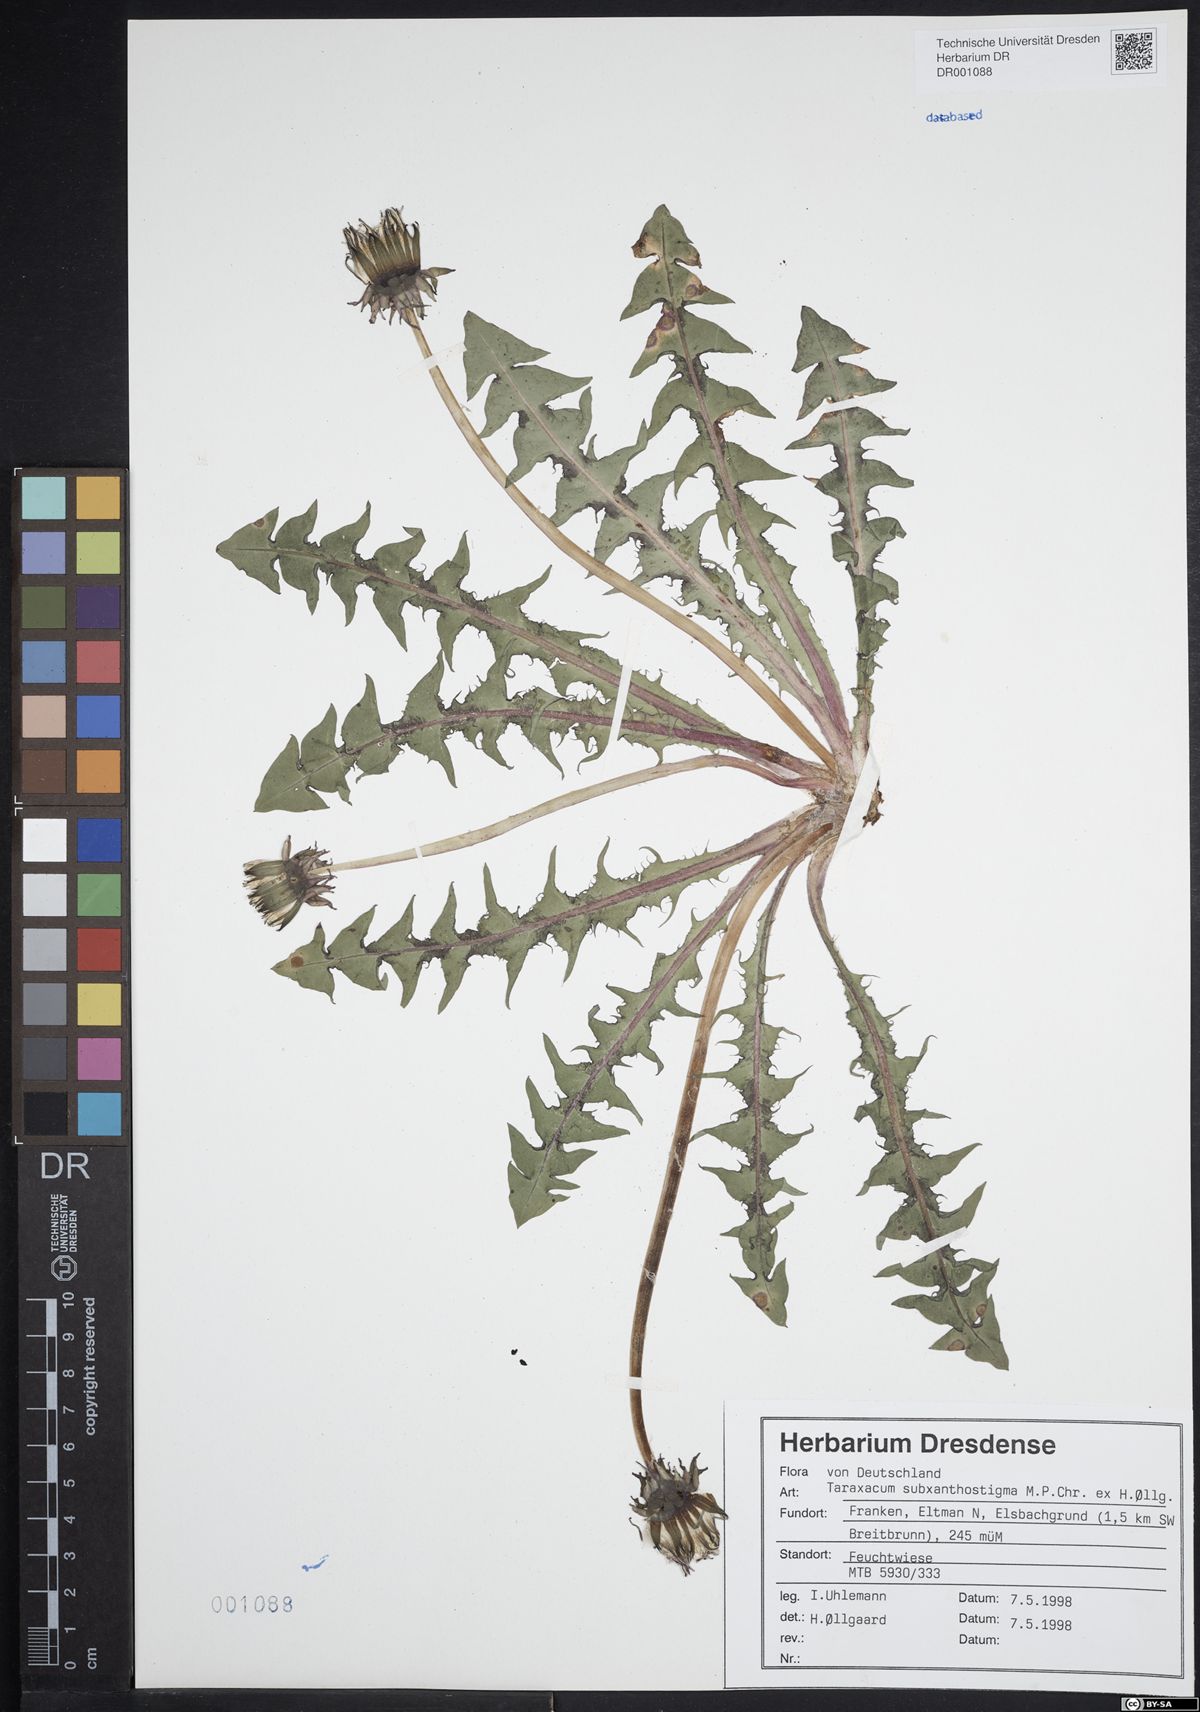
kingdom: Plantae
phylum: Tracheophyta
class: Magnoliopsida
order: Asterales
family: Asteraceae
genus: Taraxacum
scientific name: Taraxacum subxanthostigma
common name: Purple-stalked dandelion
